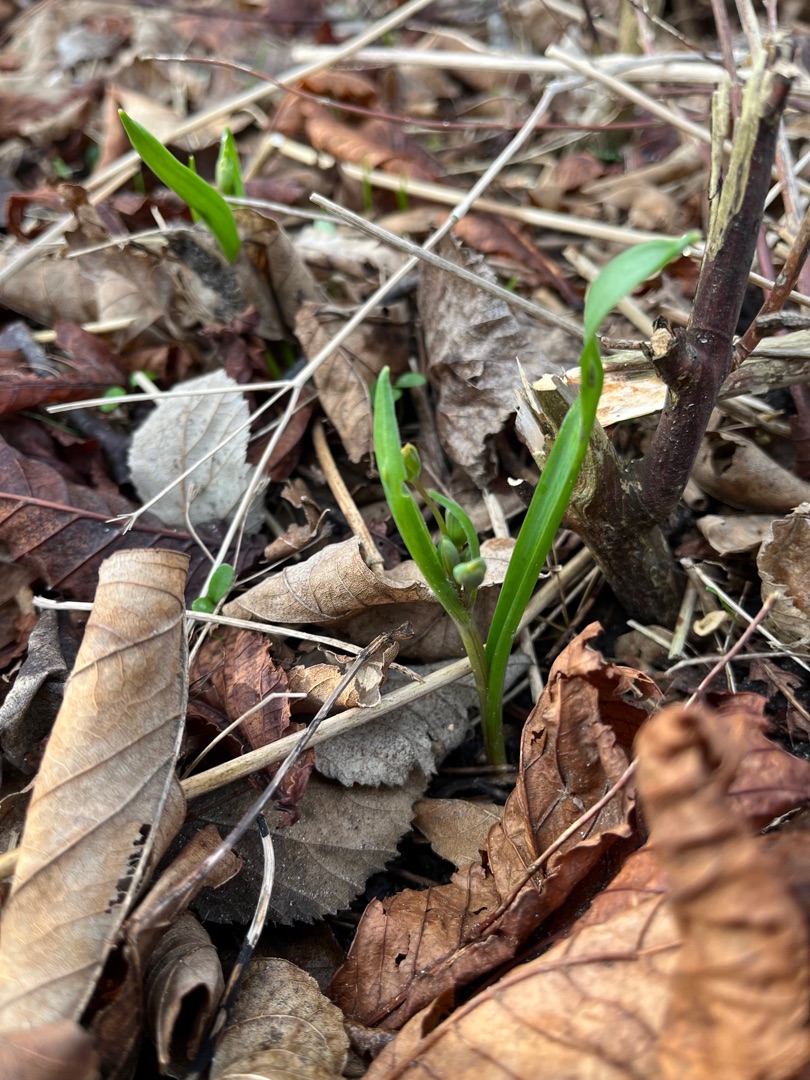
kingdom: Plantae
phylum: Tracheophyta
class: Liliopsida
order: Liliales
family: Liliaceae
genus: Gagea
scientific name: Gagea lutea
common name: Almindelig guldstjerne
